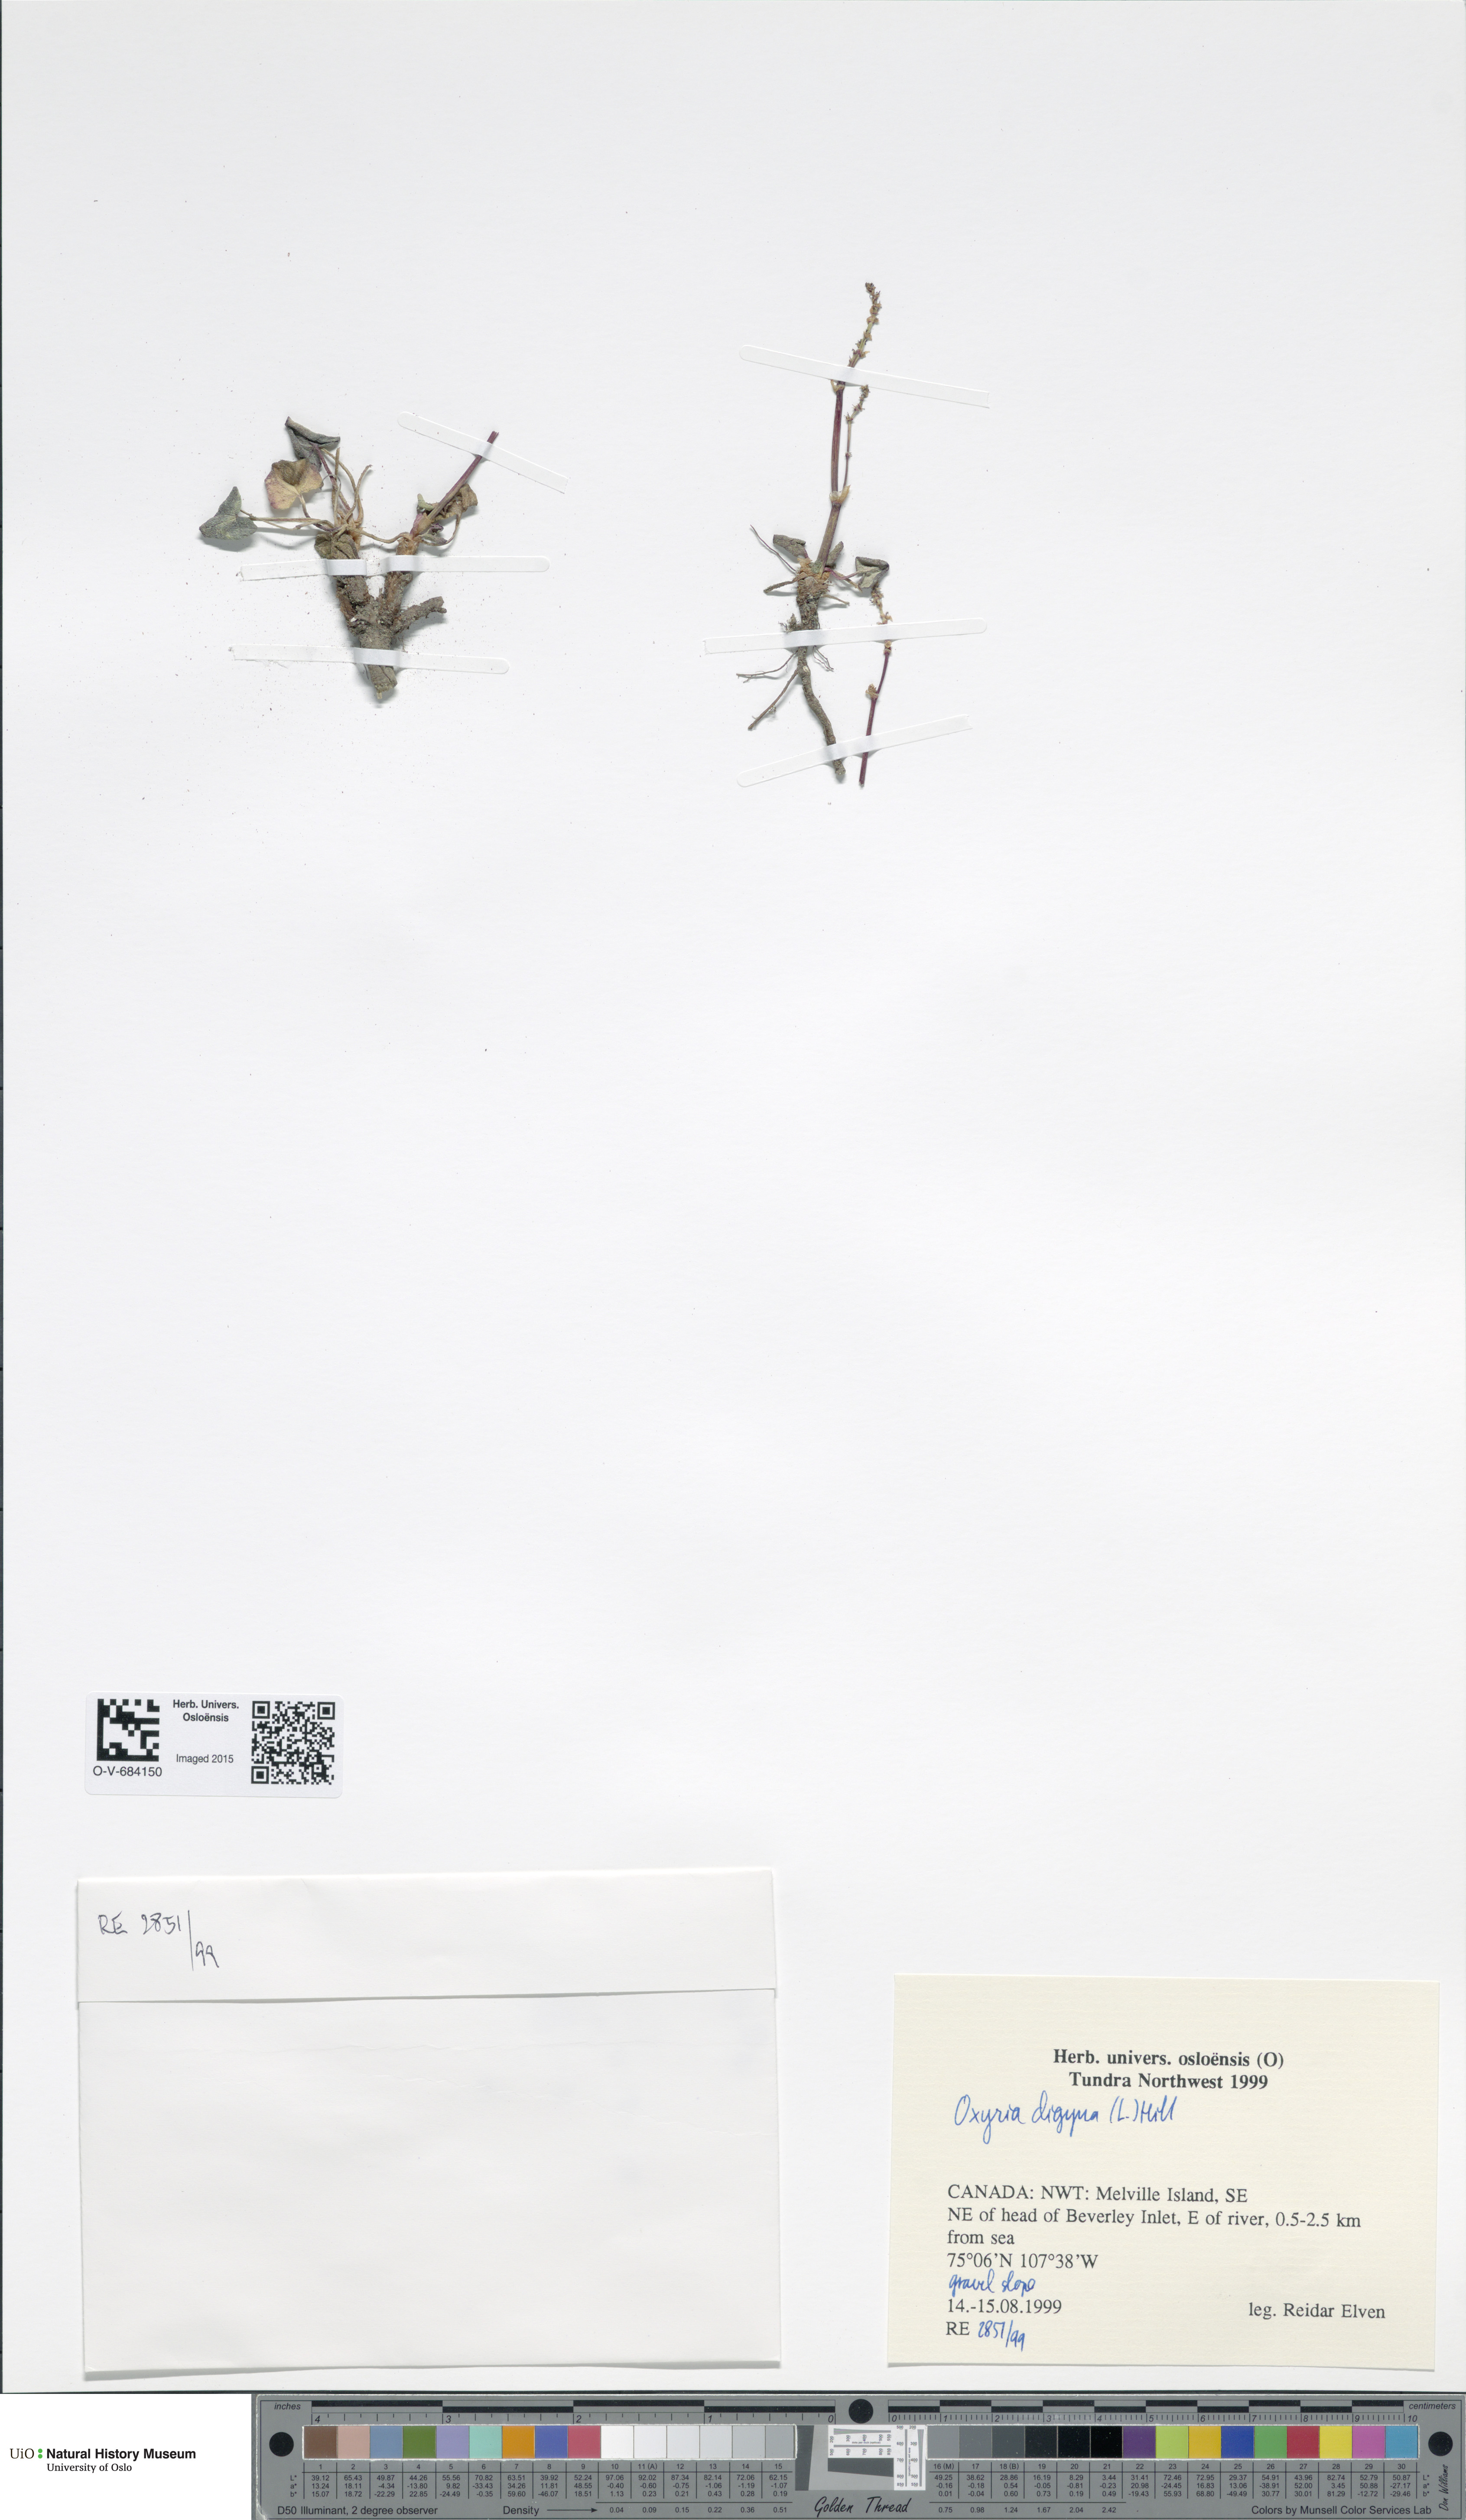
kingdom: Plantae
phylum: Tracheophyta
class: Magnoliopsida
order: Caryophyllales
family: Polygonaceae
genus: Oxyria
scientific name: Oxyria digyna
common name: Alpine mountain-sorrel
